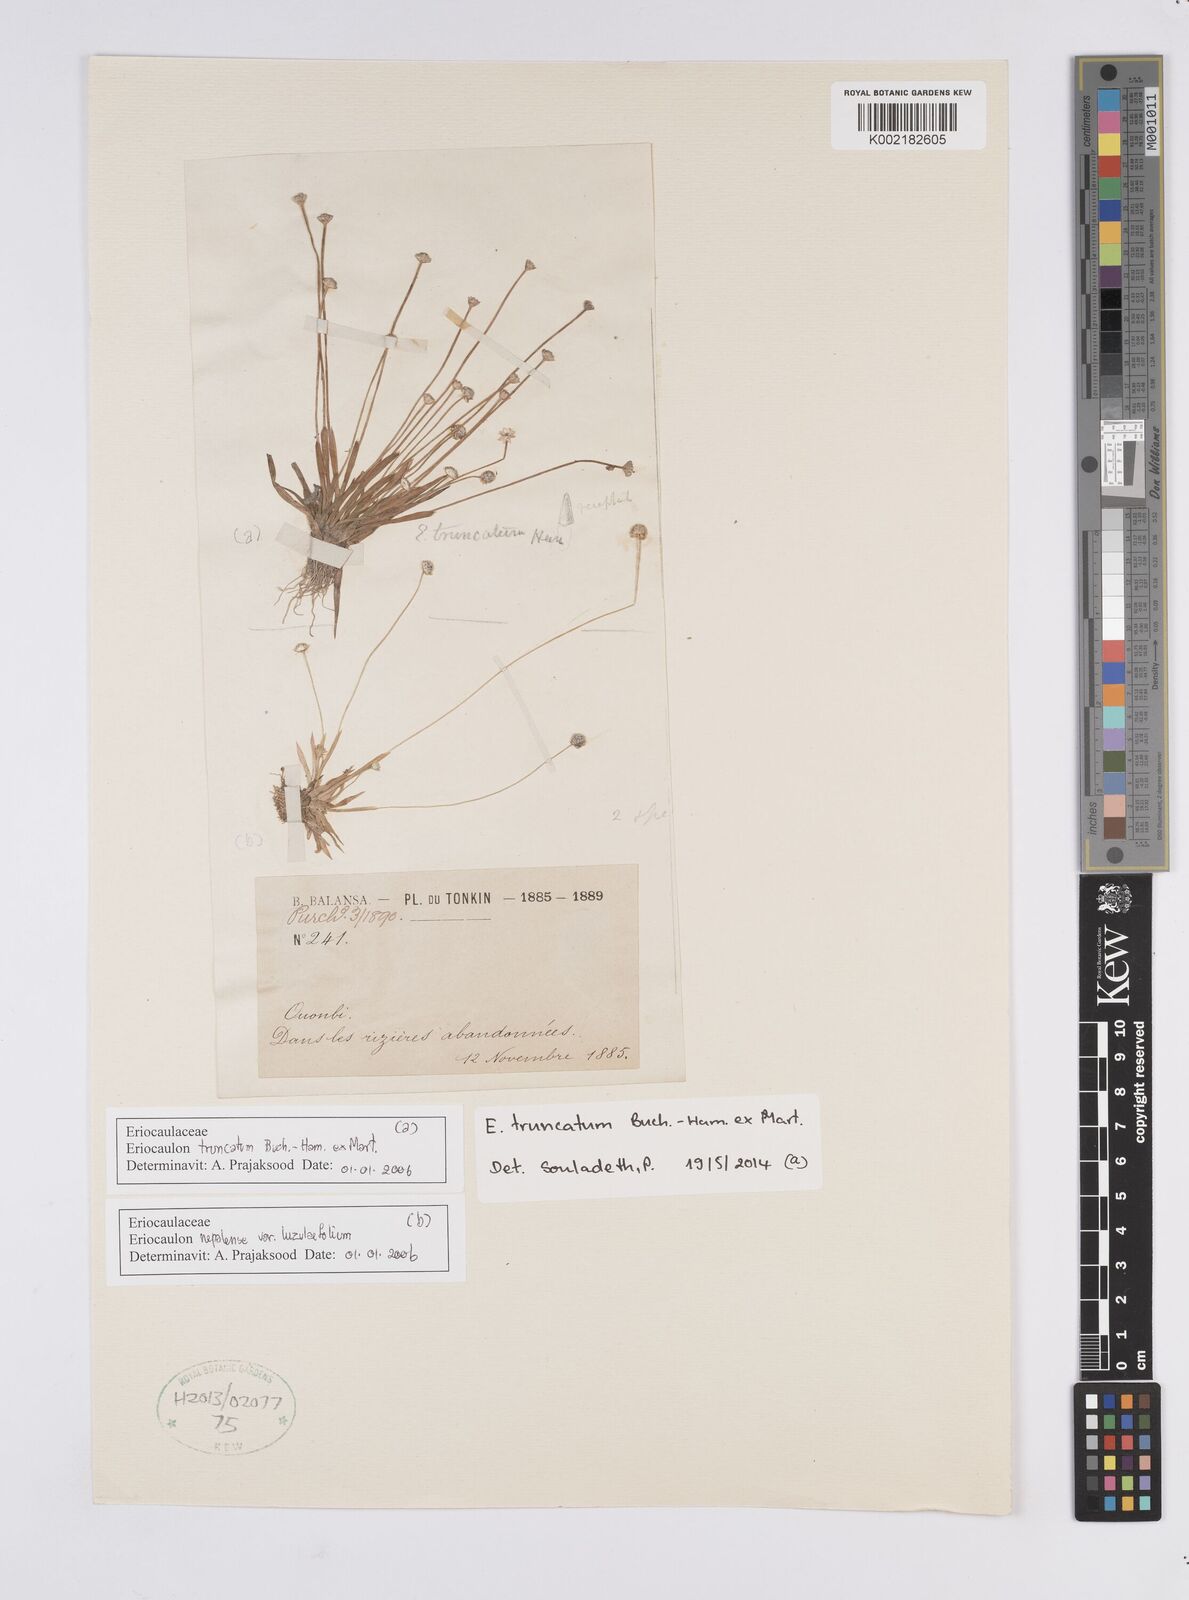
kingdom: Plantae
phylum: Tracheophyta
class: Liliopsida
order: Poales
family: Eriocaulaceae
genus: Eriocaulon
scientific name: Eriocaulon truncatum
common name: Short pipe-wort
